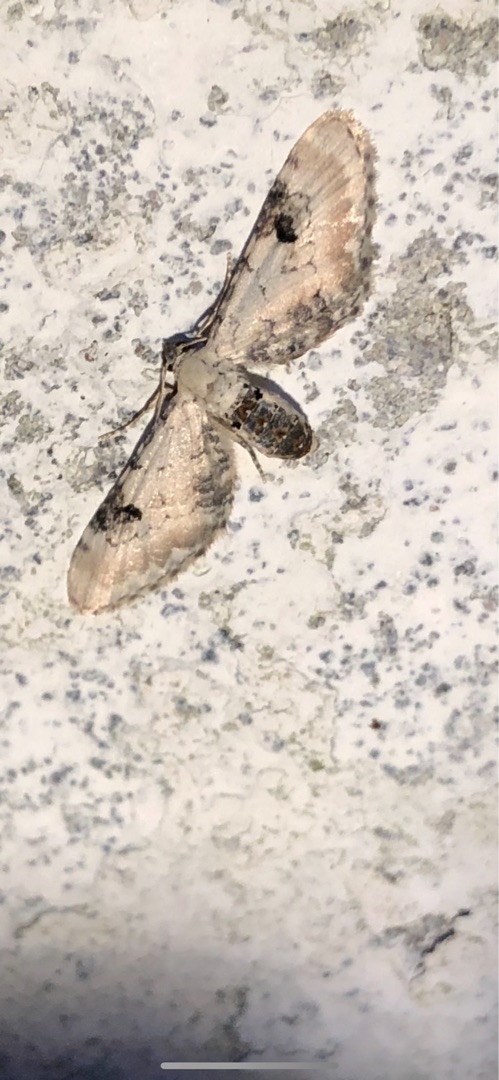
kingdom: Animalia
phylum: Arthropoda
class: Insecta
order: Lepidoptera
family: Geometridae
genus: Eupithecia
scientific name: Eupithecia centaureata
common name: Hvid dværgmåler
